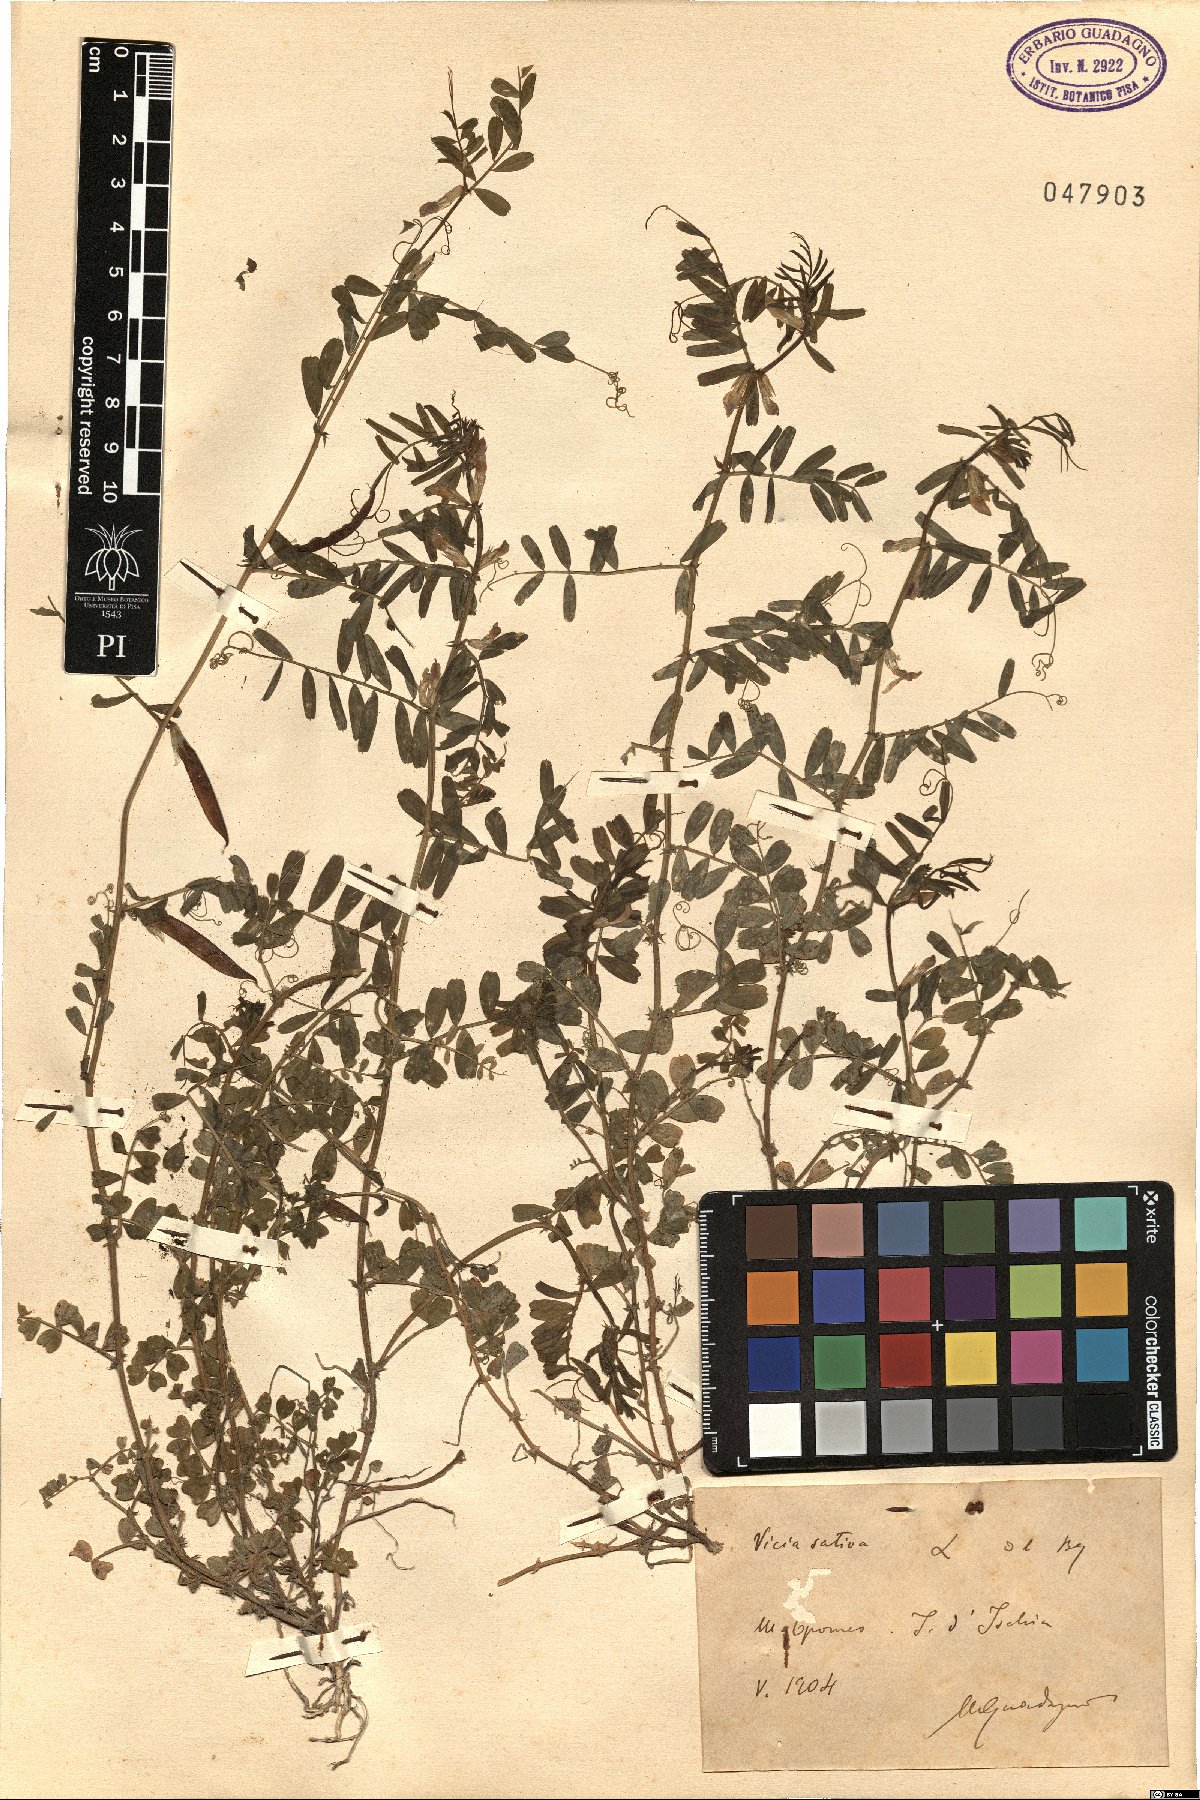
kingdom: Plantae
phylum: Tracheophyta
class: Magnoliopsida
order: Fabales
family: Fabaceae
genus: Vicia
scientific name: Vicia sativa
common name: Garden vetch
